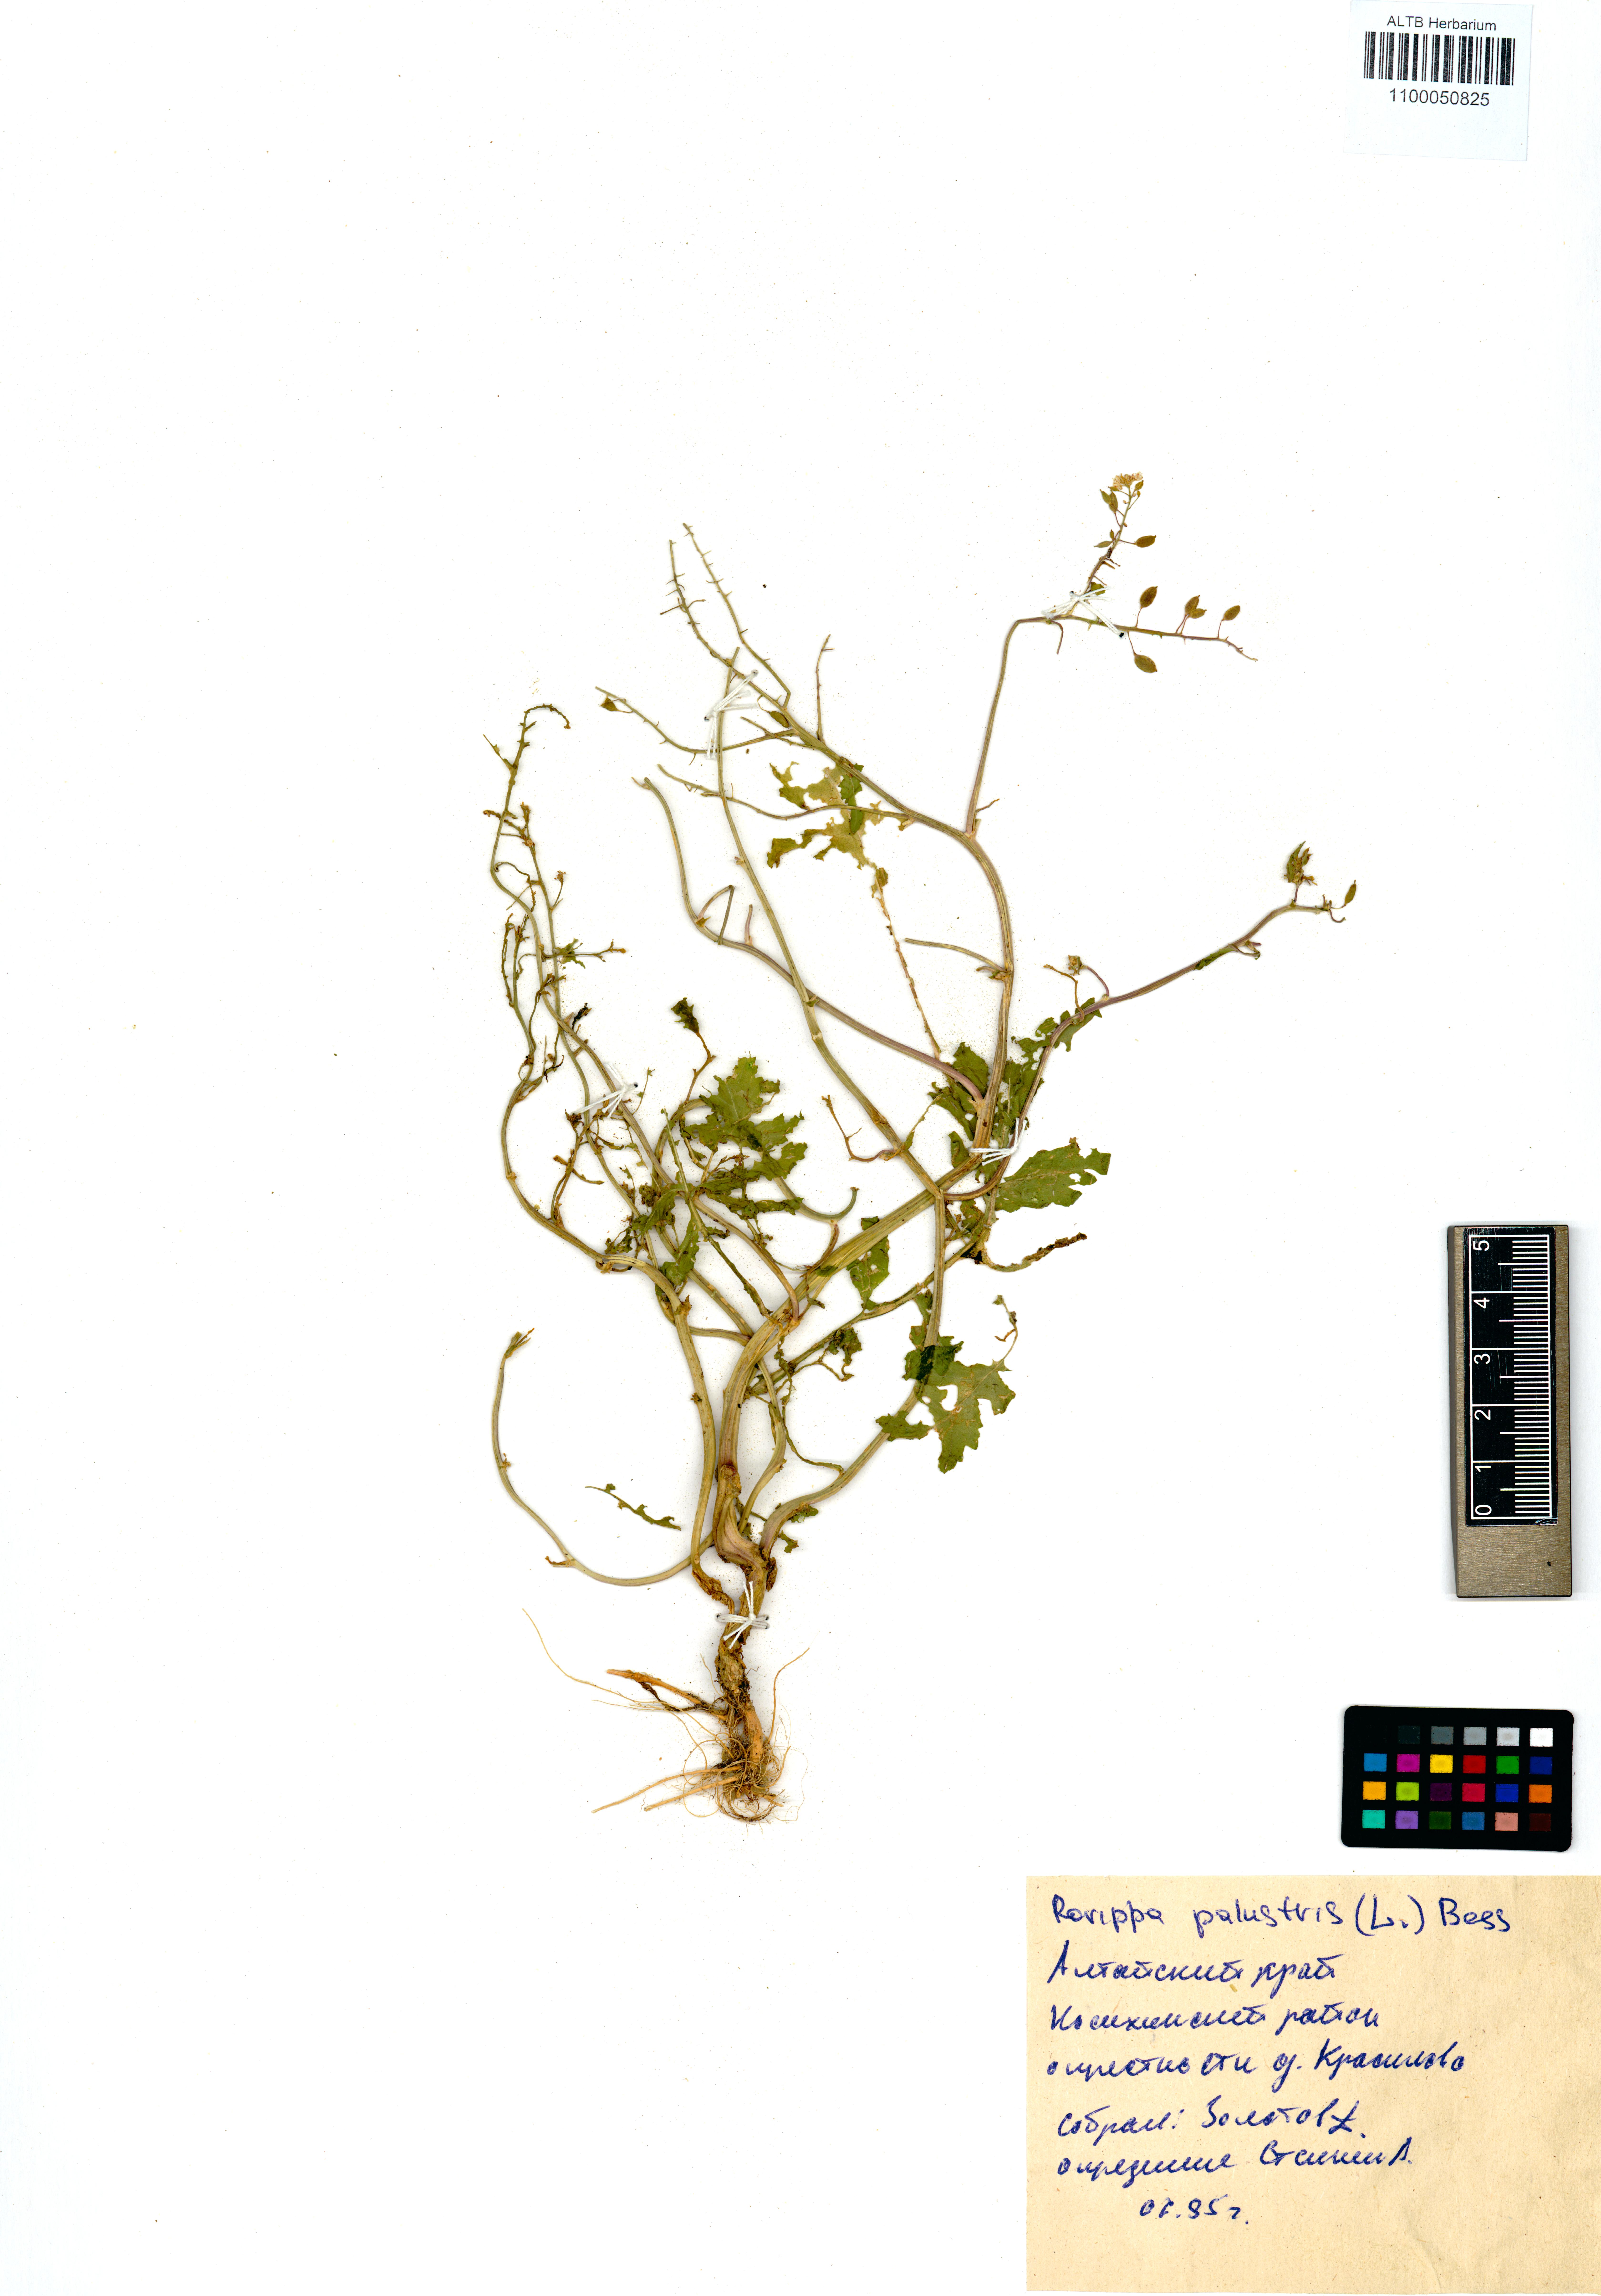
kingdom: Plantae
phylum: Tracheophyta
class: Magnoliopsida
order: Brassicales
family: Brassicaceae
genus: Rorippa
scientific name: Rorippa palustris
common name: Marsh yellow-cress
